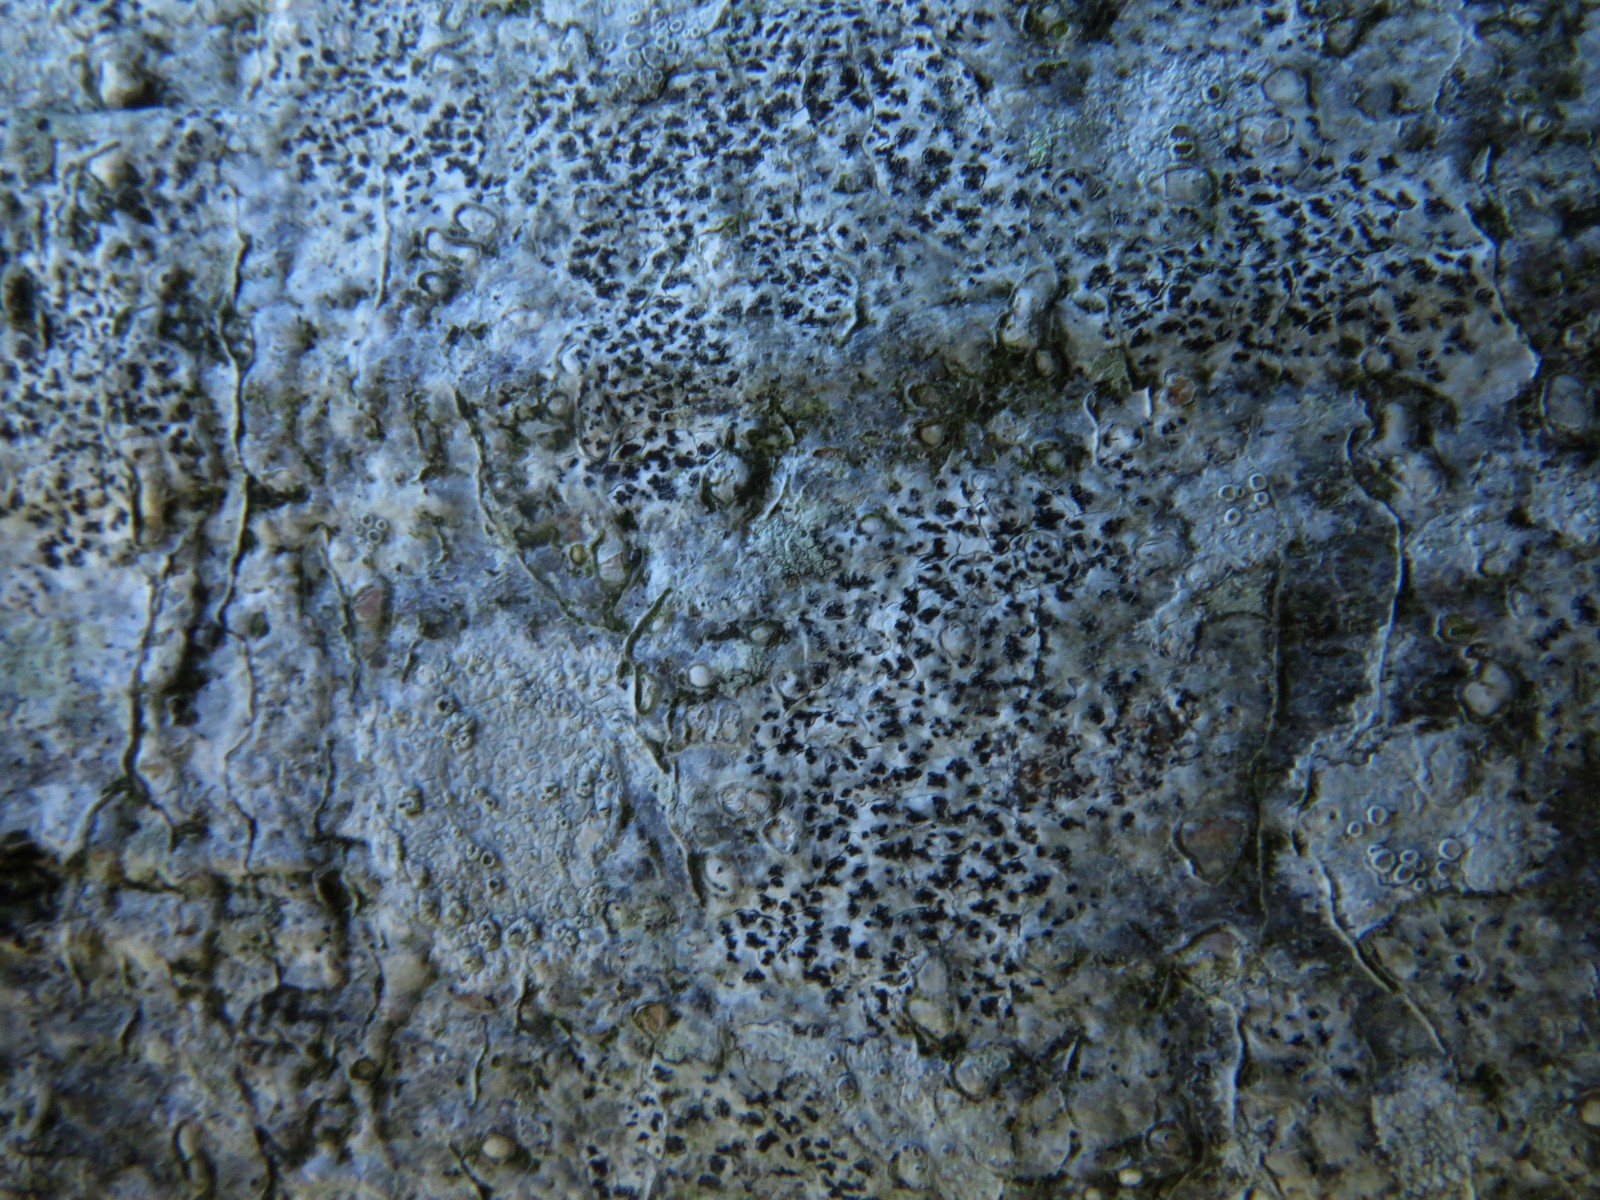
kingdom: Fungi
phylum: Ascomycota
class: Arthoniomycetes
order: Arthoniales
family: Arthoniaceae
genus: Arthonia
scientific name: Arthonia radiata
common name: stjerne-pletlav
